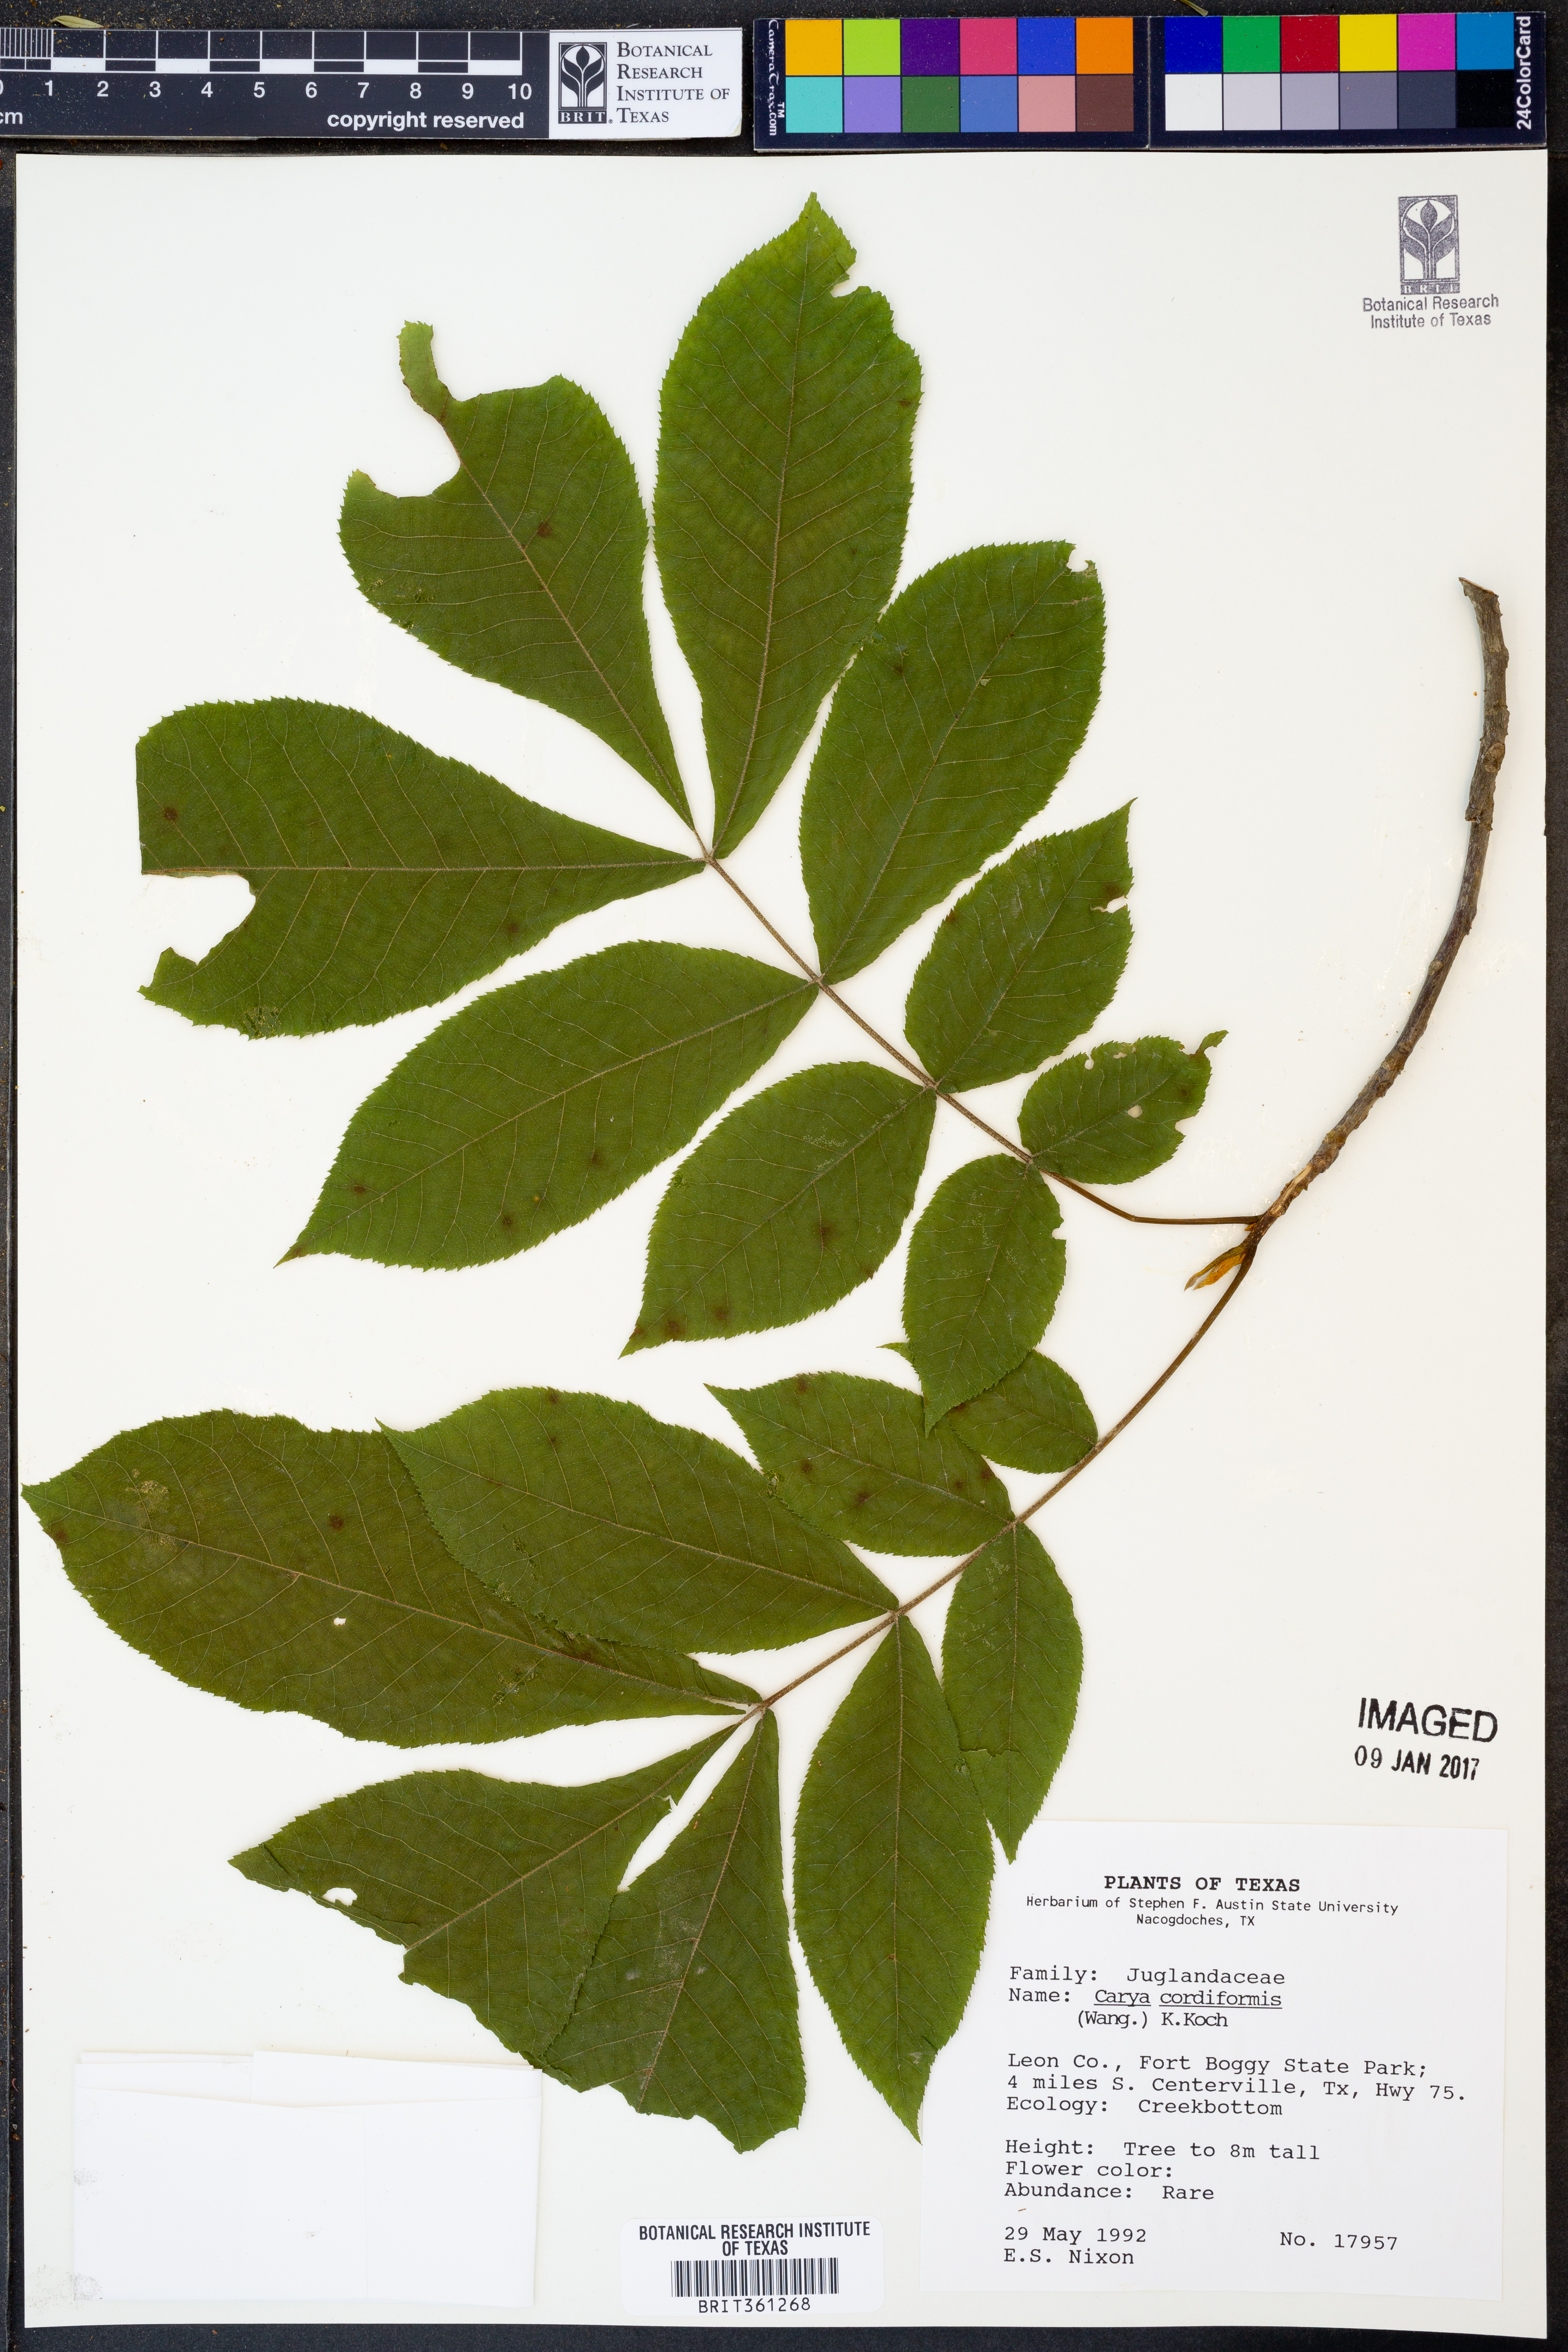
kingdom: Plantae
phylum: Tracheophyta
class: Magnoliopsida
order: Fagales
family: Juglandaceae
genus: Carya
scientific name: Carya cordiformis
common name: Bitternut hickory
